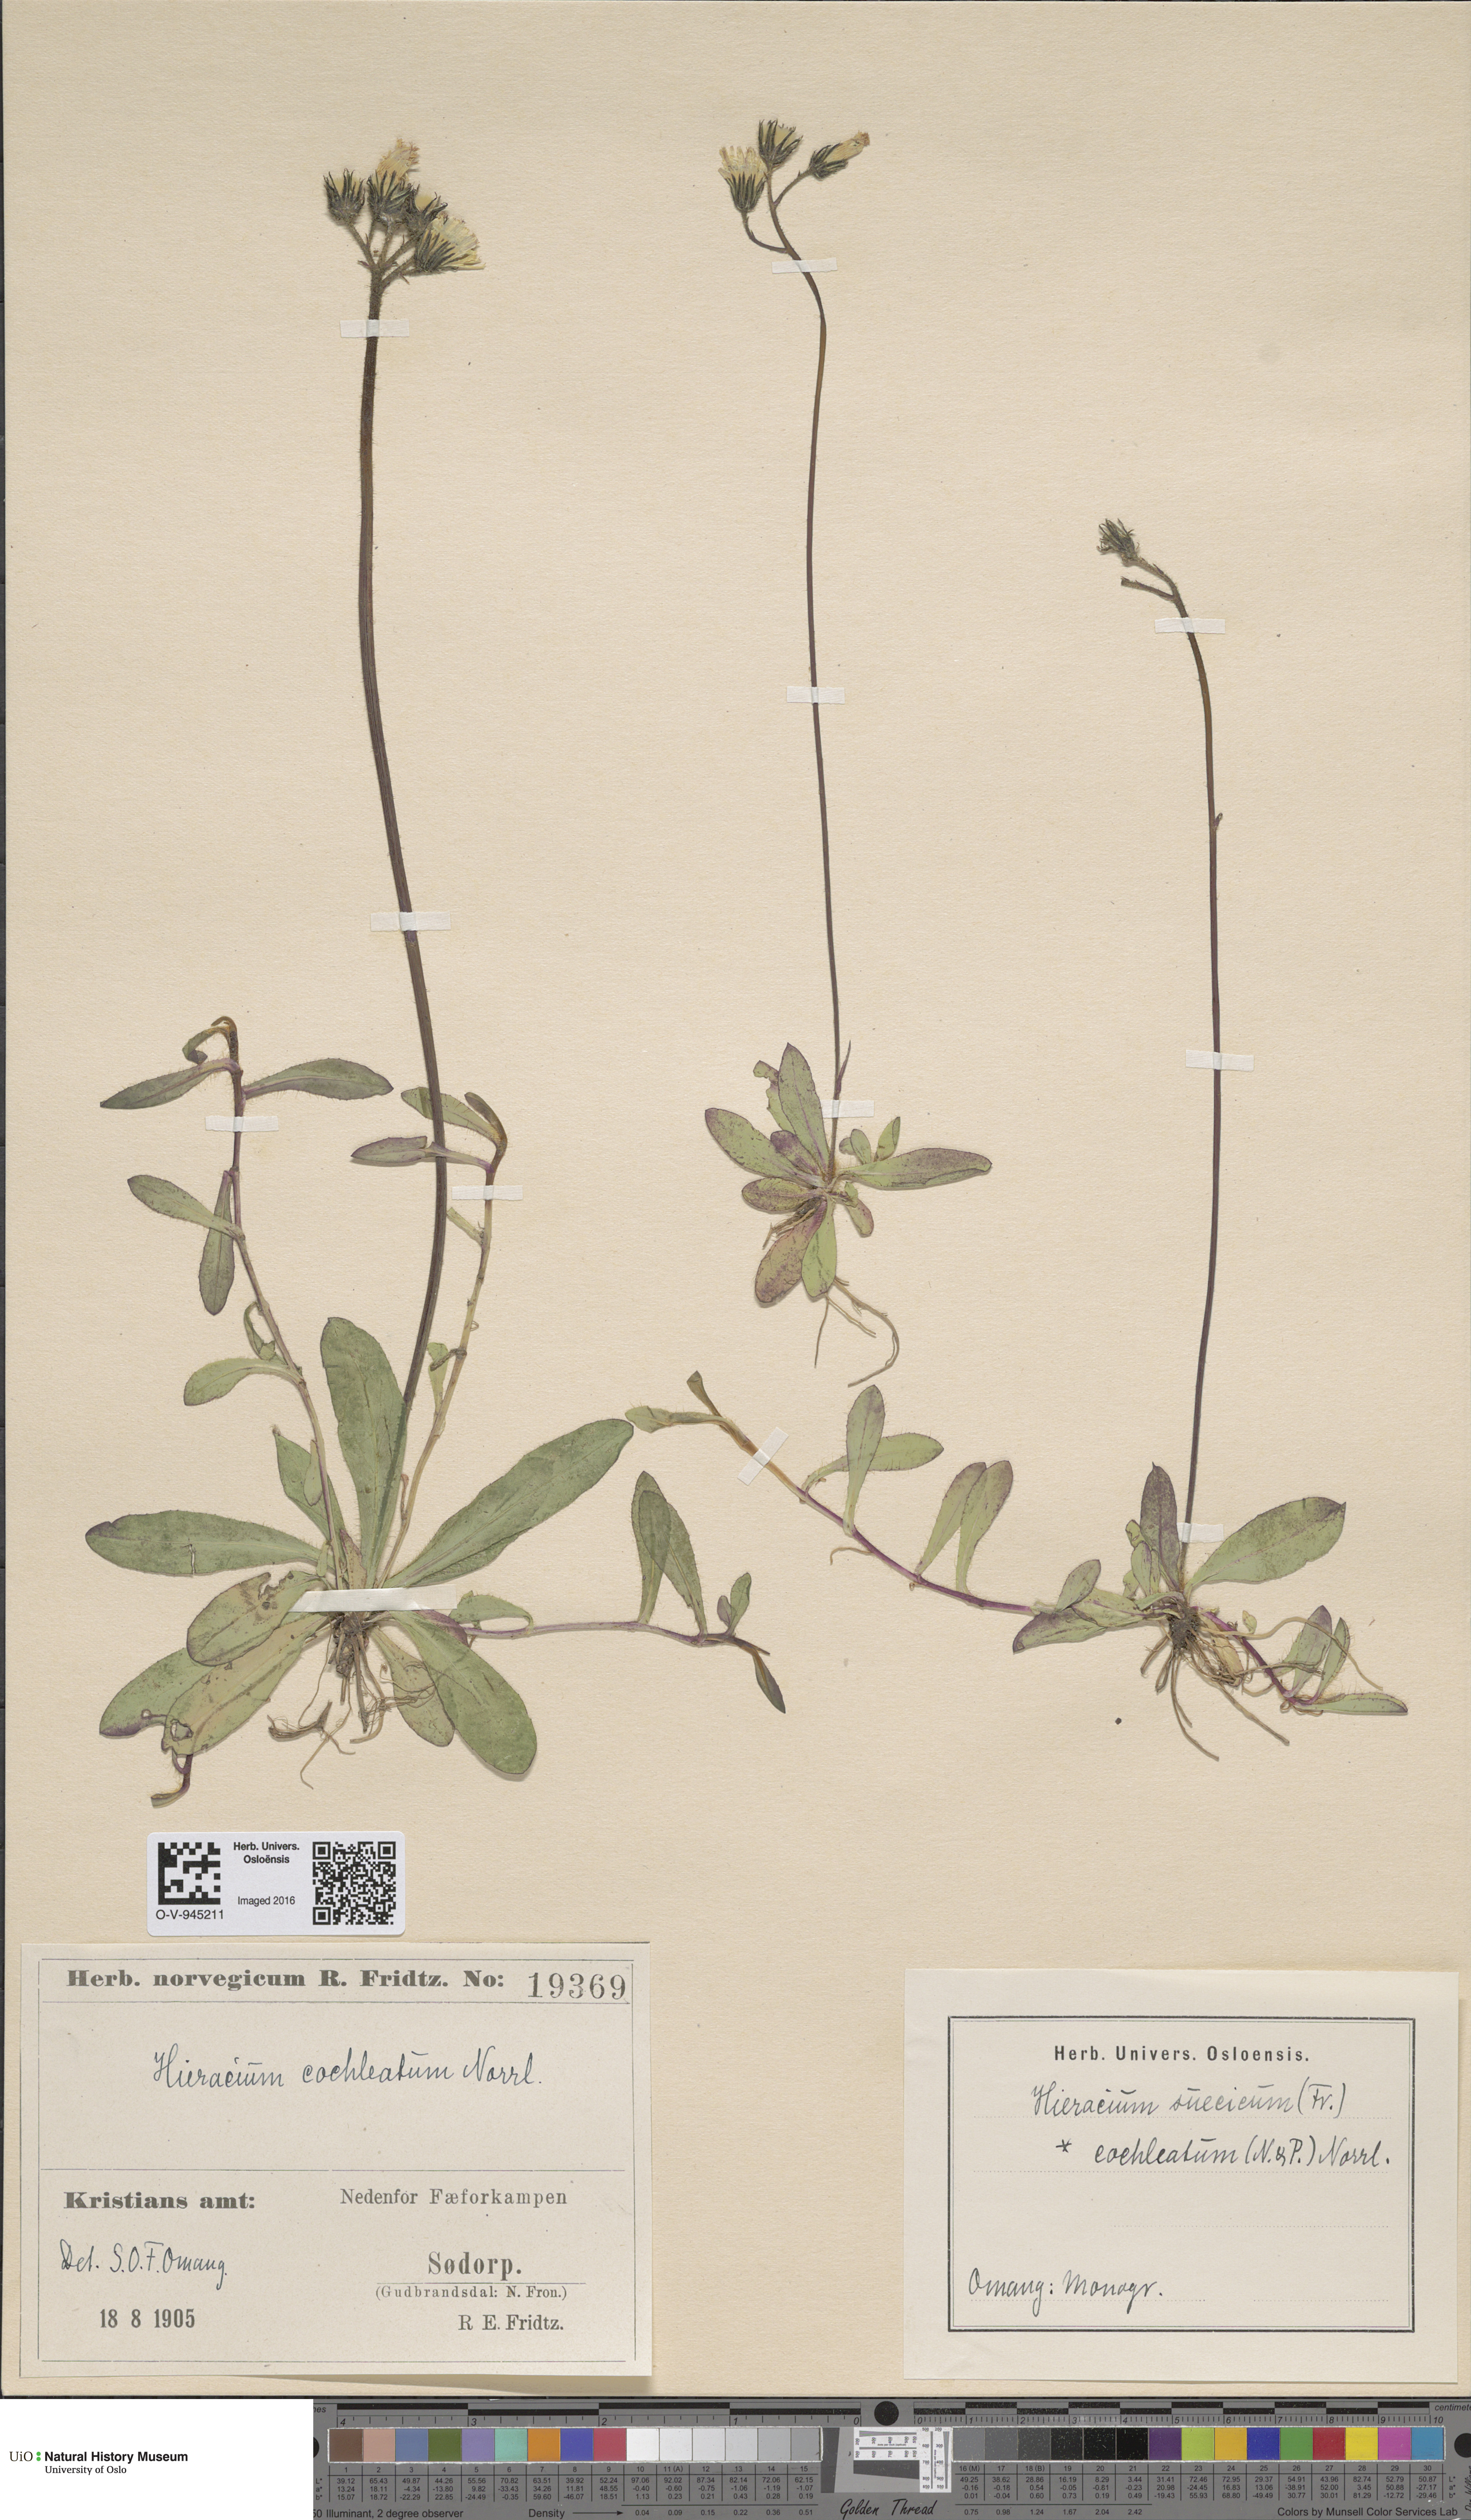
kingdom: Plantae
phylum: Tracheophyta
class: Magnoliopsida
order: Asterales
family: Asteraceae
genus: Pilosella
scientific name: Pilosella floribunda
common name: Glaucous hawkweed
